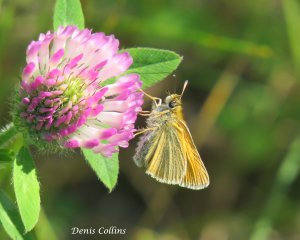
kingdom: Animalia
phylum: Arthropoda
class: Insecta
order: Lepidoptera
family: Hesperiidae
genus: Thymelicus
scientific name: Thymelicus lineola
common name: European Skipper
